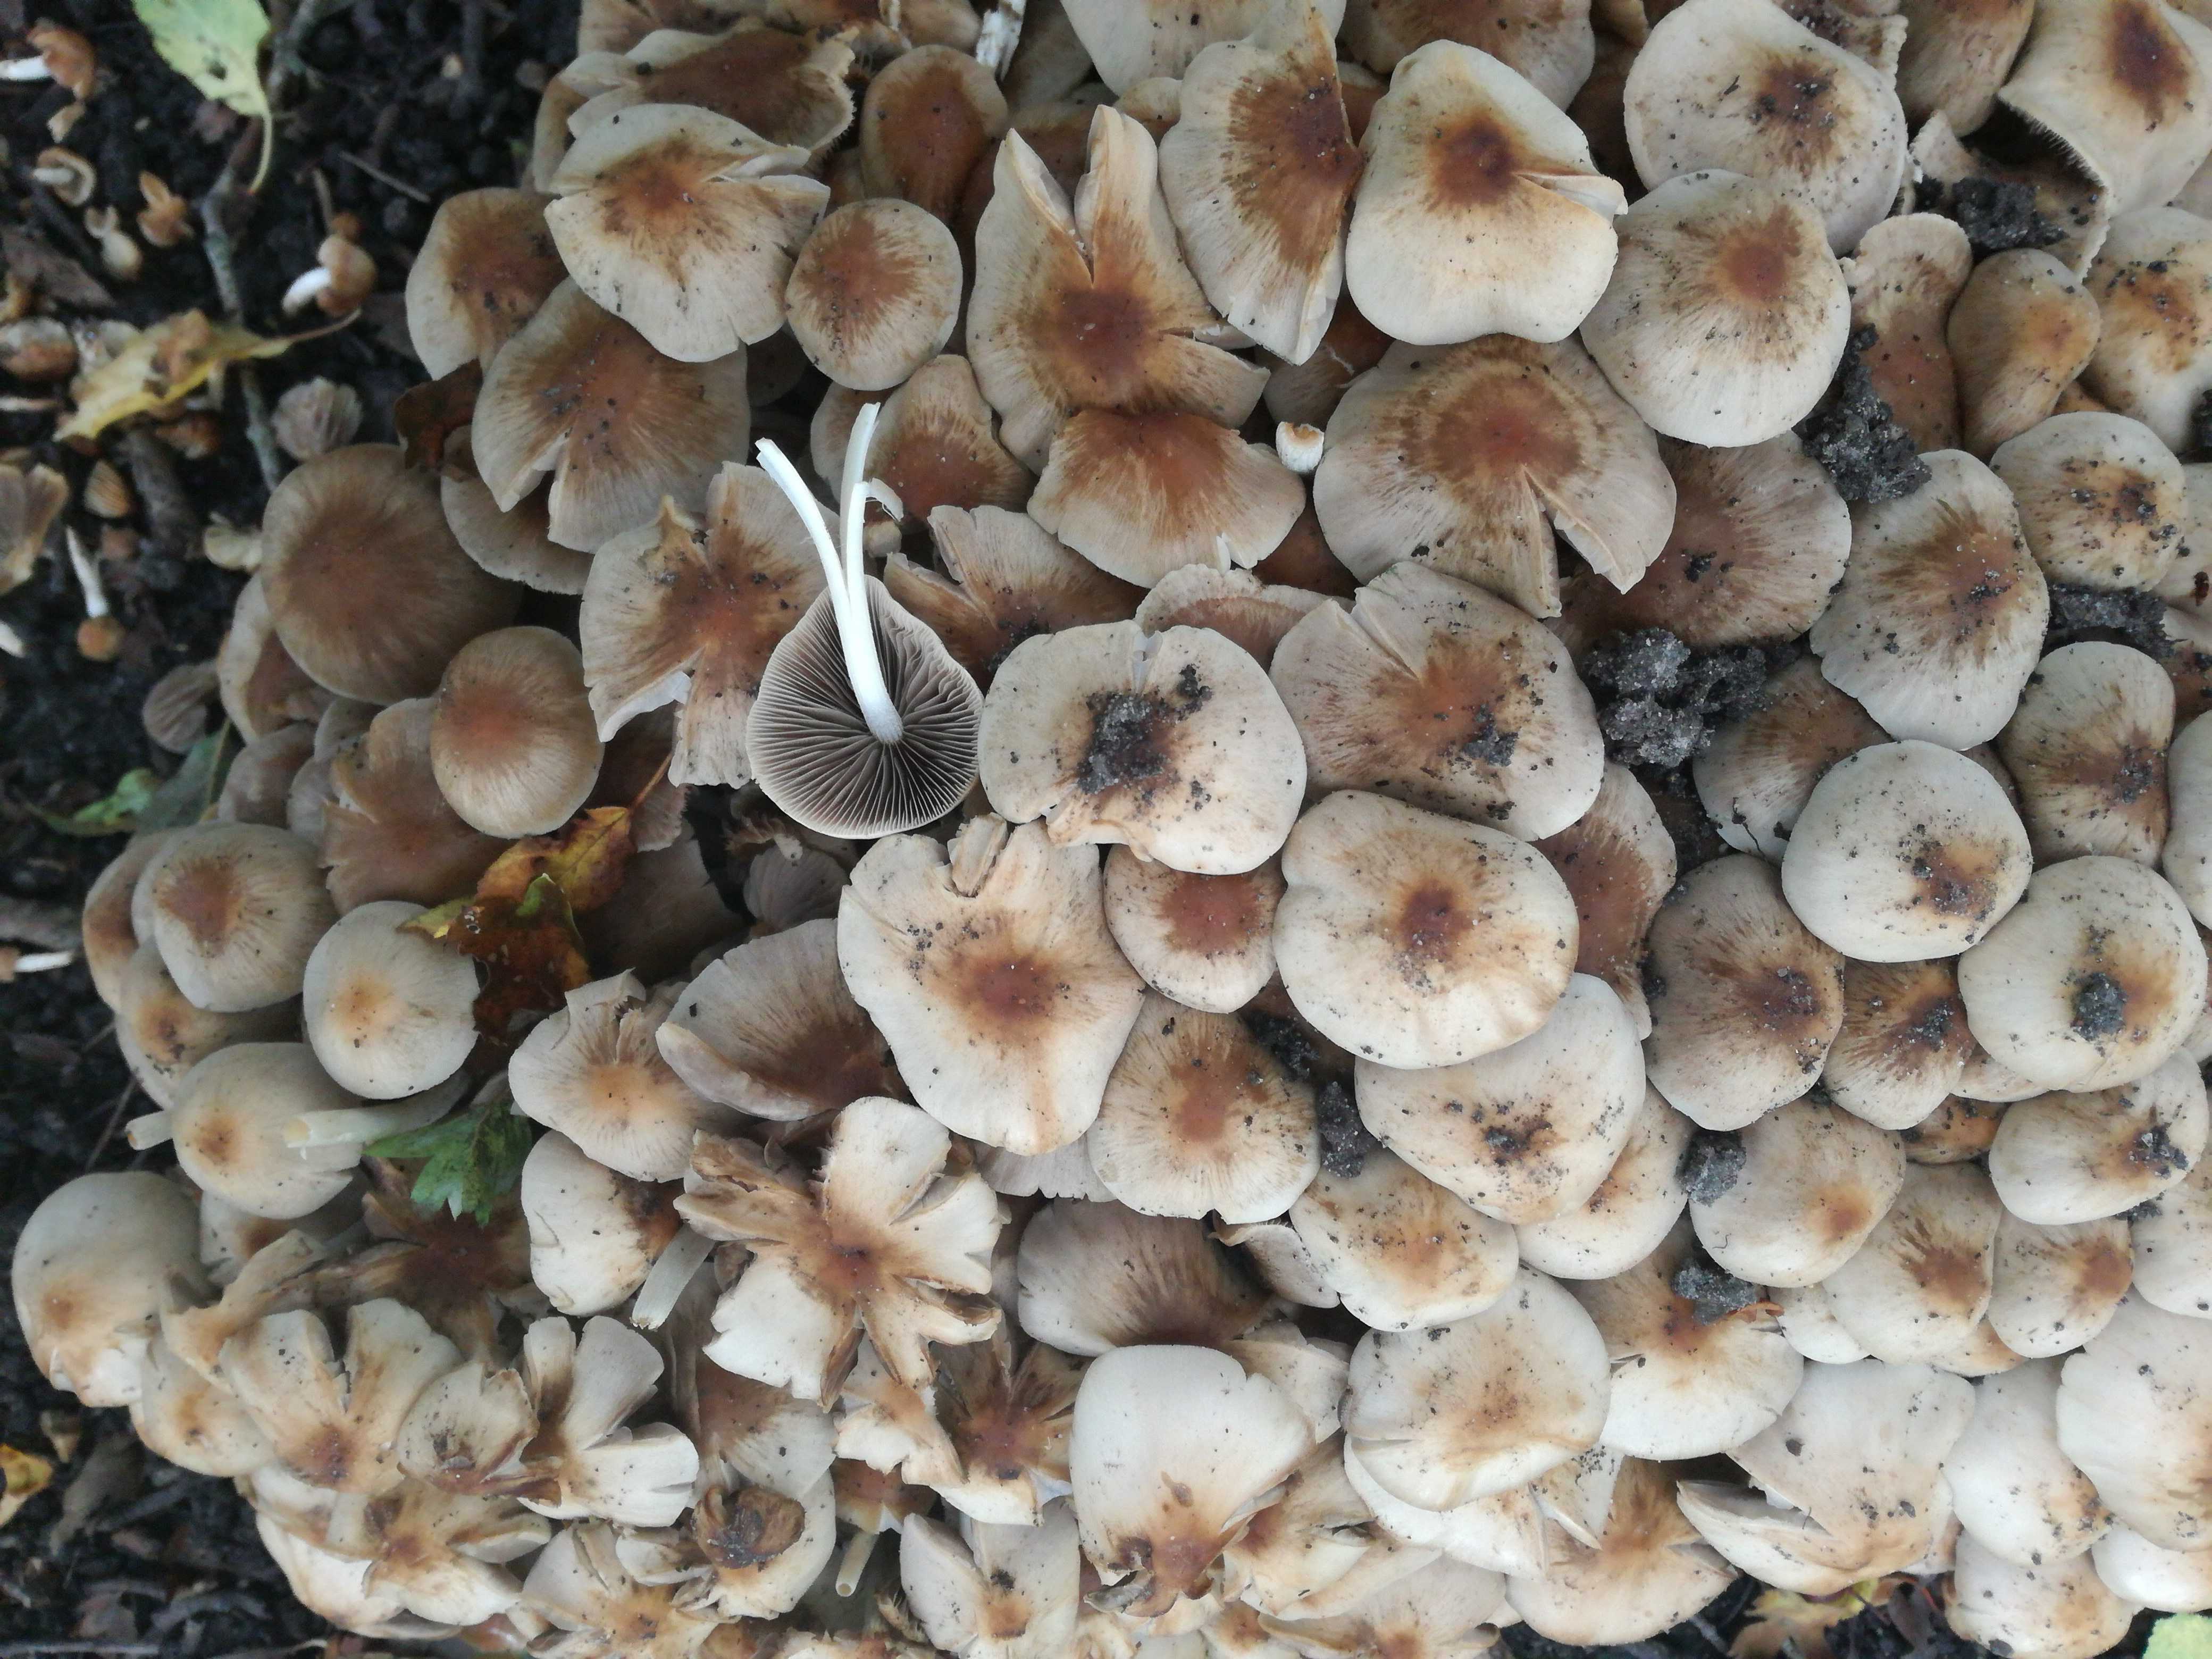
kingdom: Fungi
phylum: Basidiomycota
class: Agaricomycetes
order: Agaricales
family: Psathyrellaceae
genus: Britzelmayria
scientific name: Britzelmayria multipedata
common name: knippe-mørkhat
